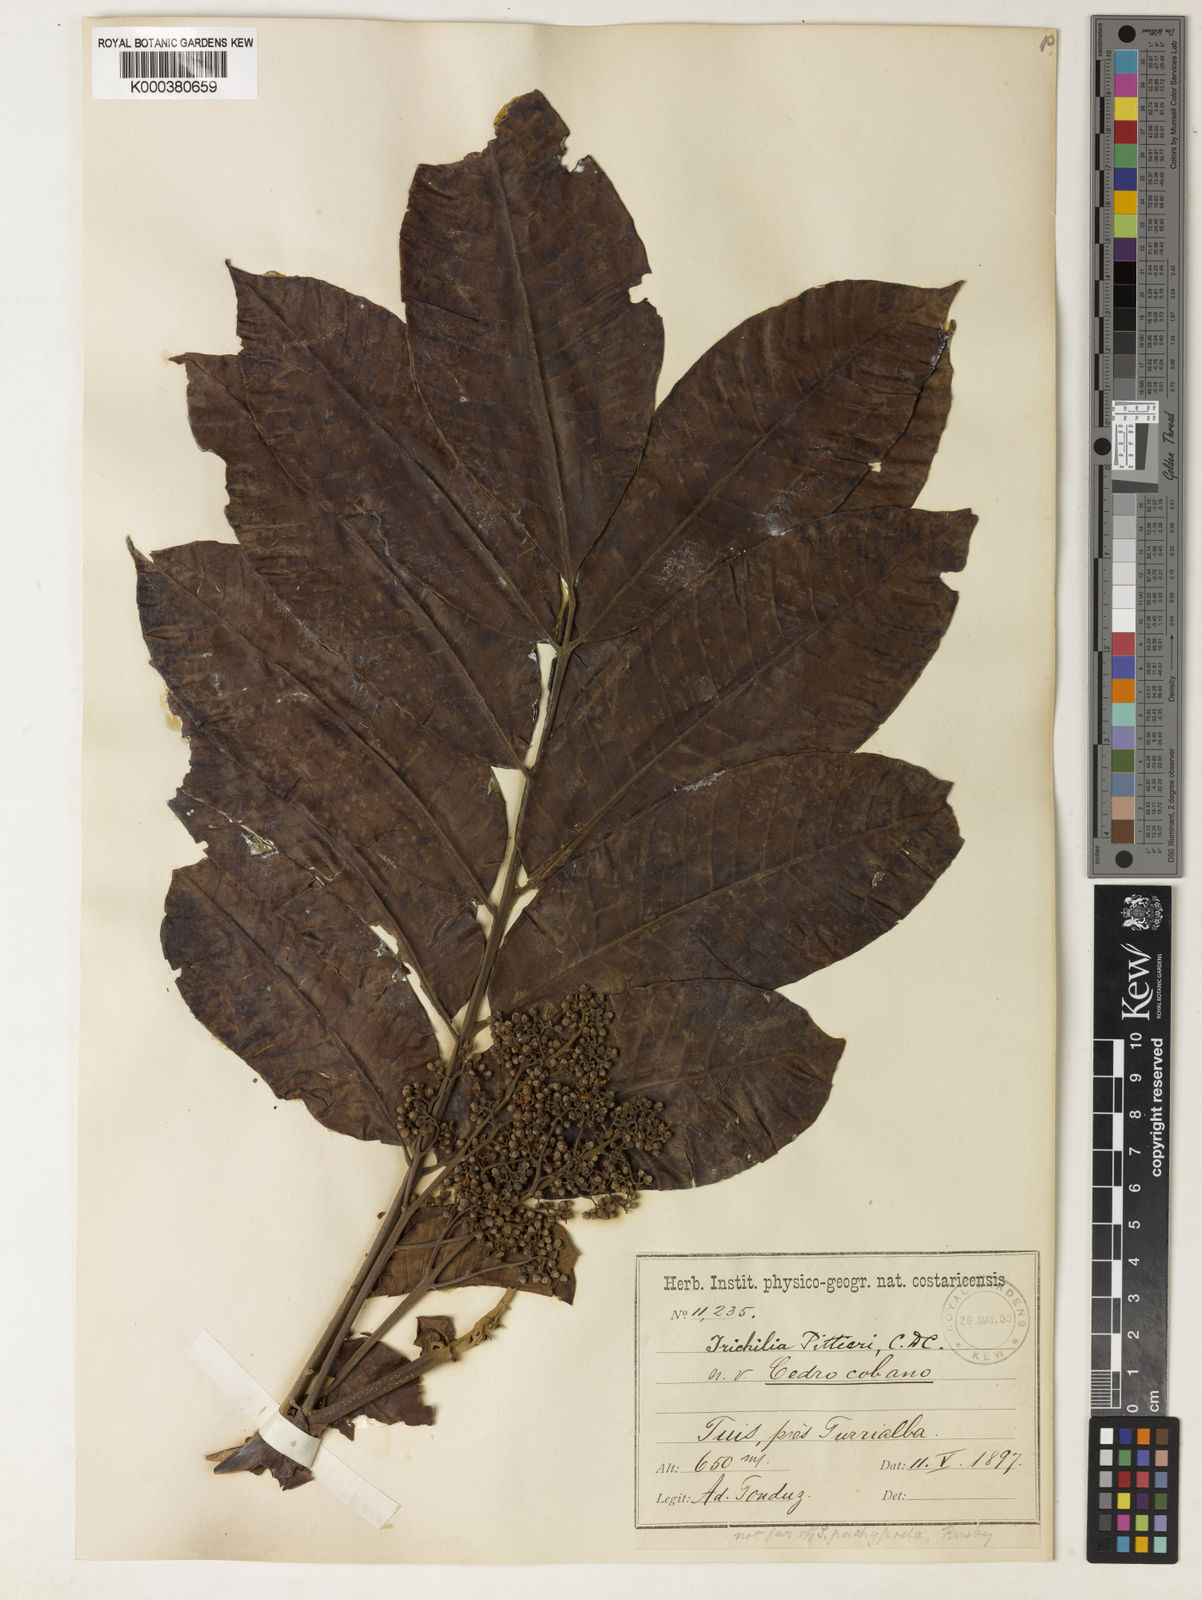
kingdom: Plantae
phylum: Tracheophyta
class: Magnoliopsida
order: Sapindales
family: Meliaceae
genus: Trichilia
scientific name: Trichilia pittieri
